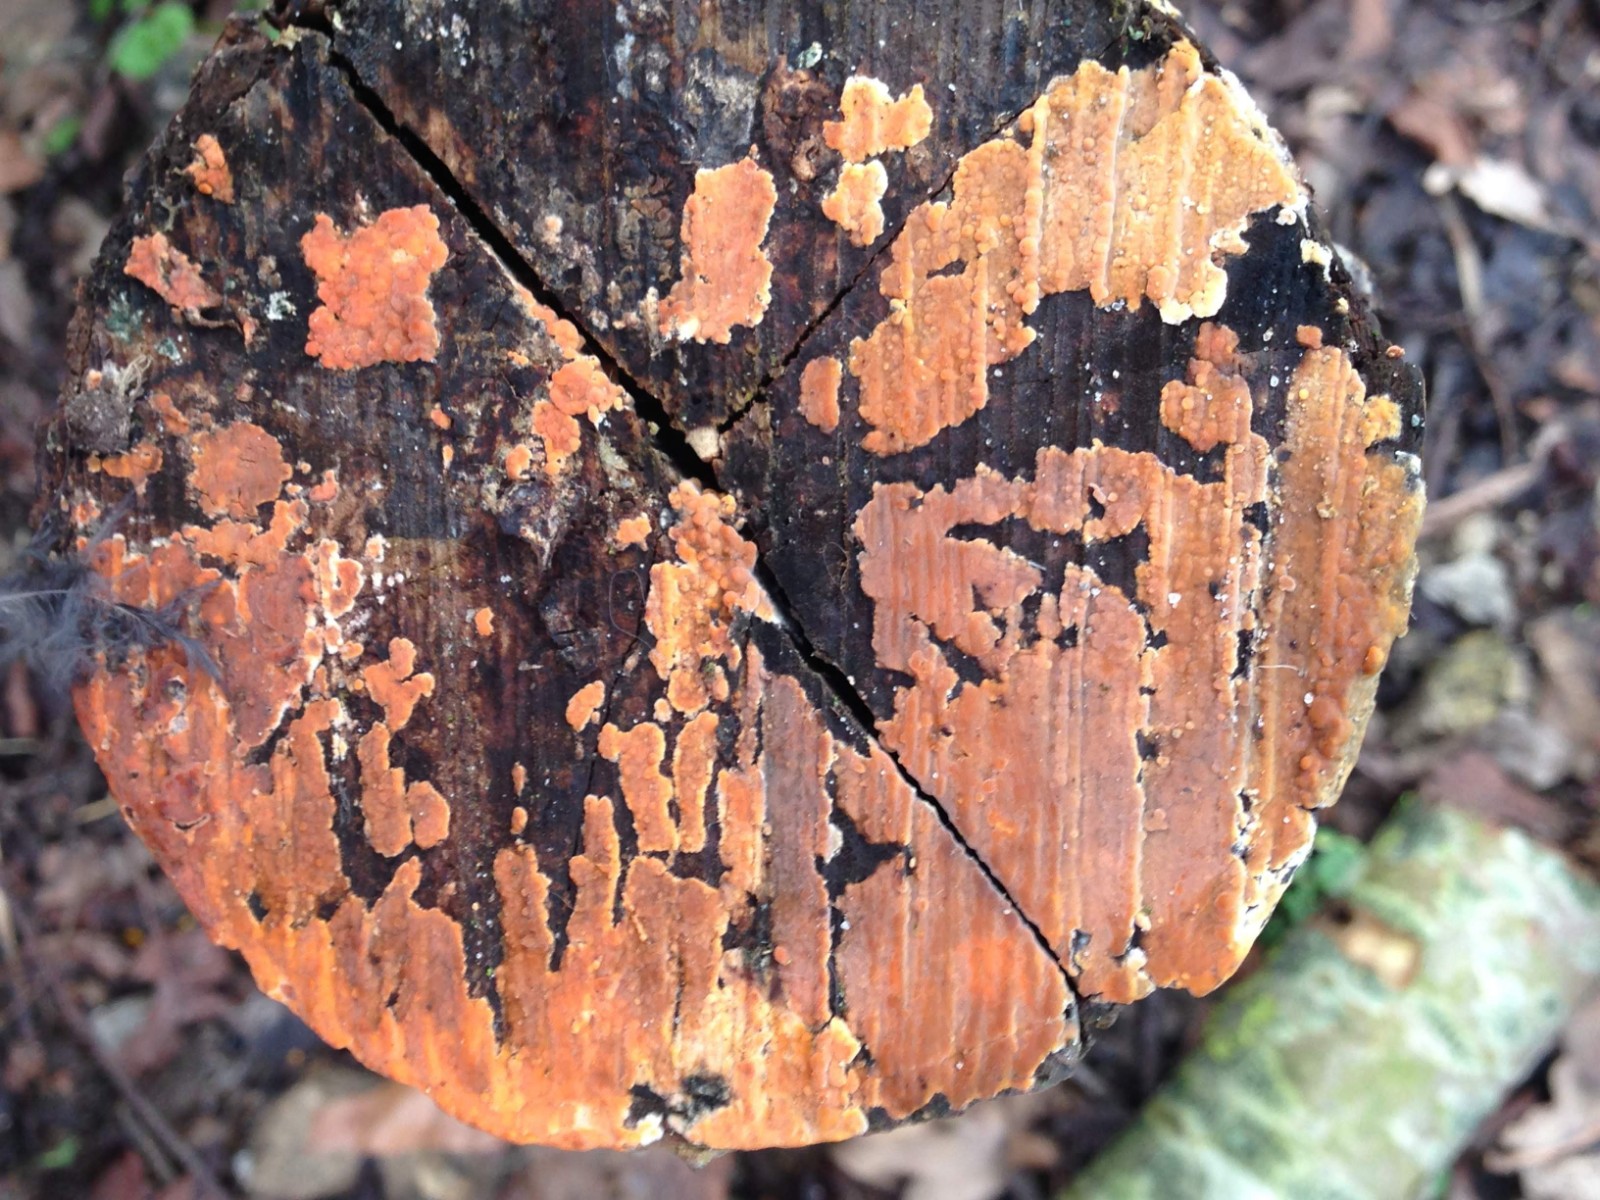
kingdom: Fungi
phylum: Basidiomycota
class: Agaricomycetes
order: Russulales
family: Peniophoraceae
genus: Peniophora
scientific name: Peniophora incarnata
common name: laksefarvet voksskind
